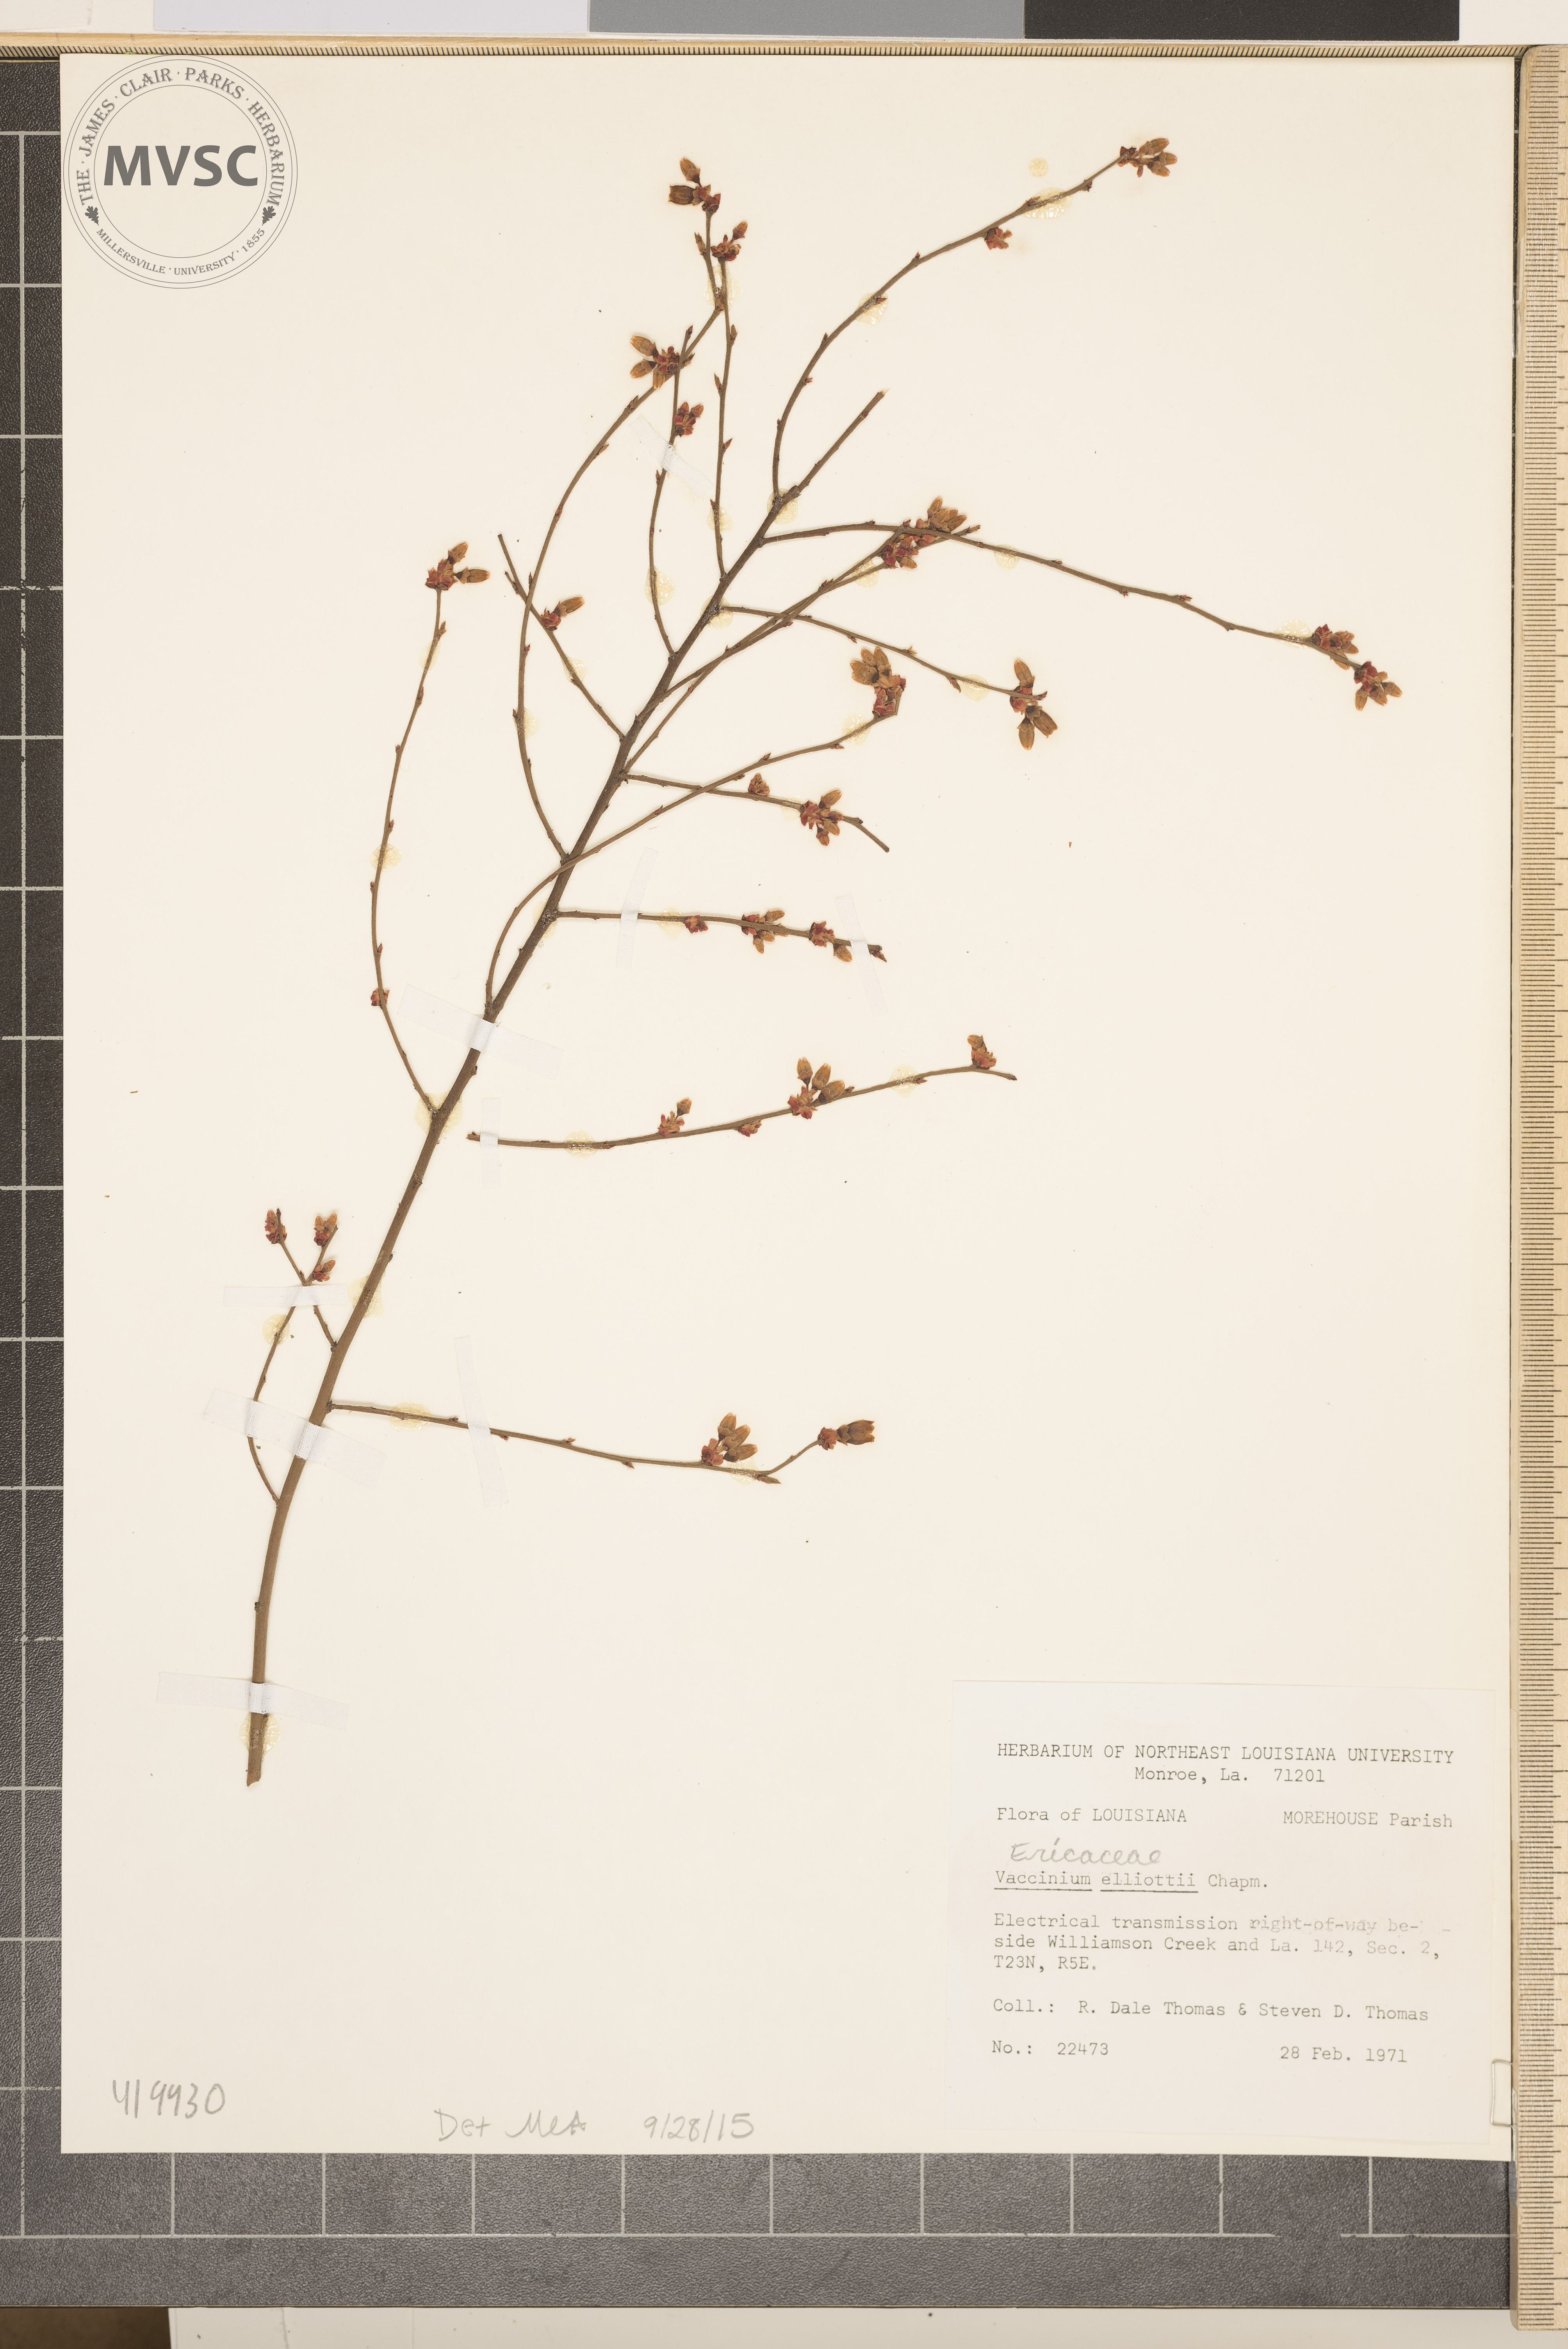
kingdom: Plantae
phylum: Tracheophyta
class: Magnoliopsida
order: Ericales
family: Ericaceae
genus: Vaccinium
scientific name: Vaccinium corymbosum
